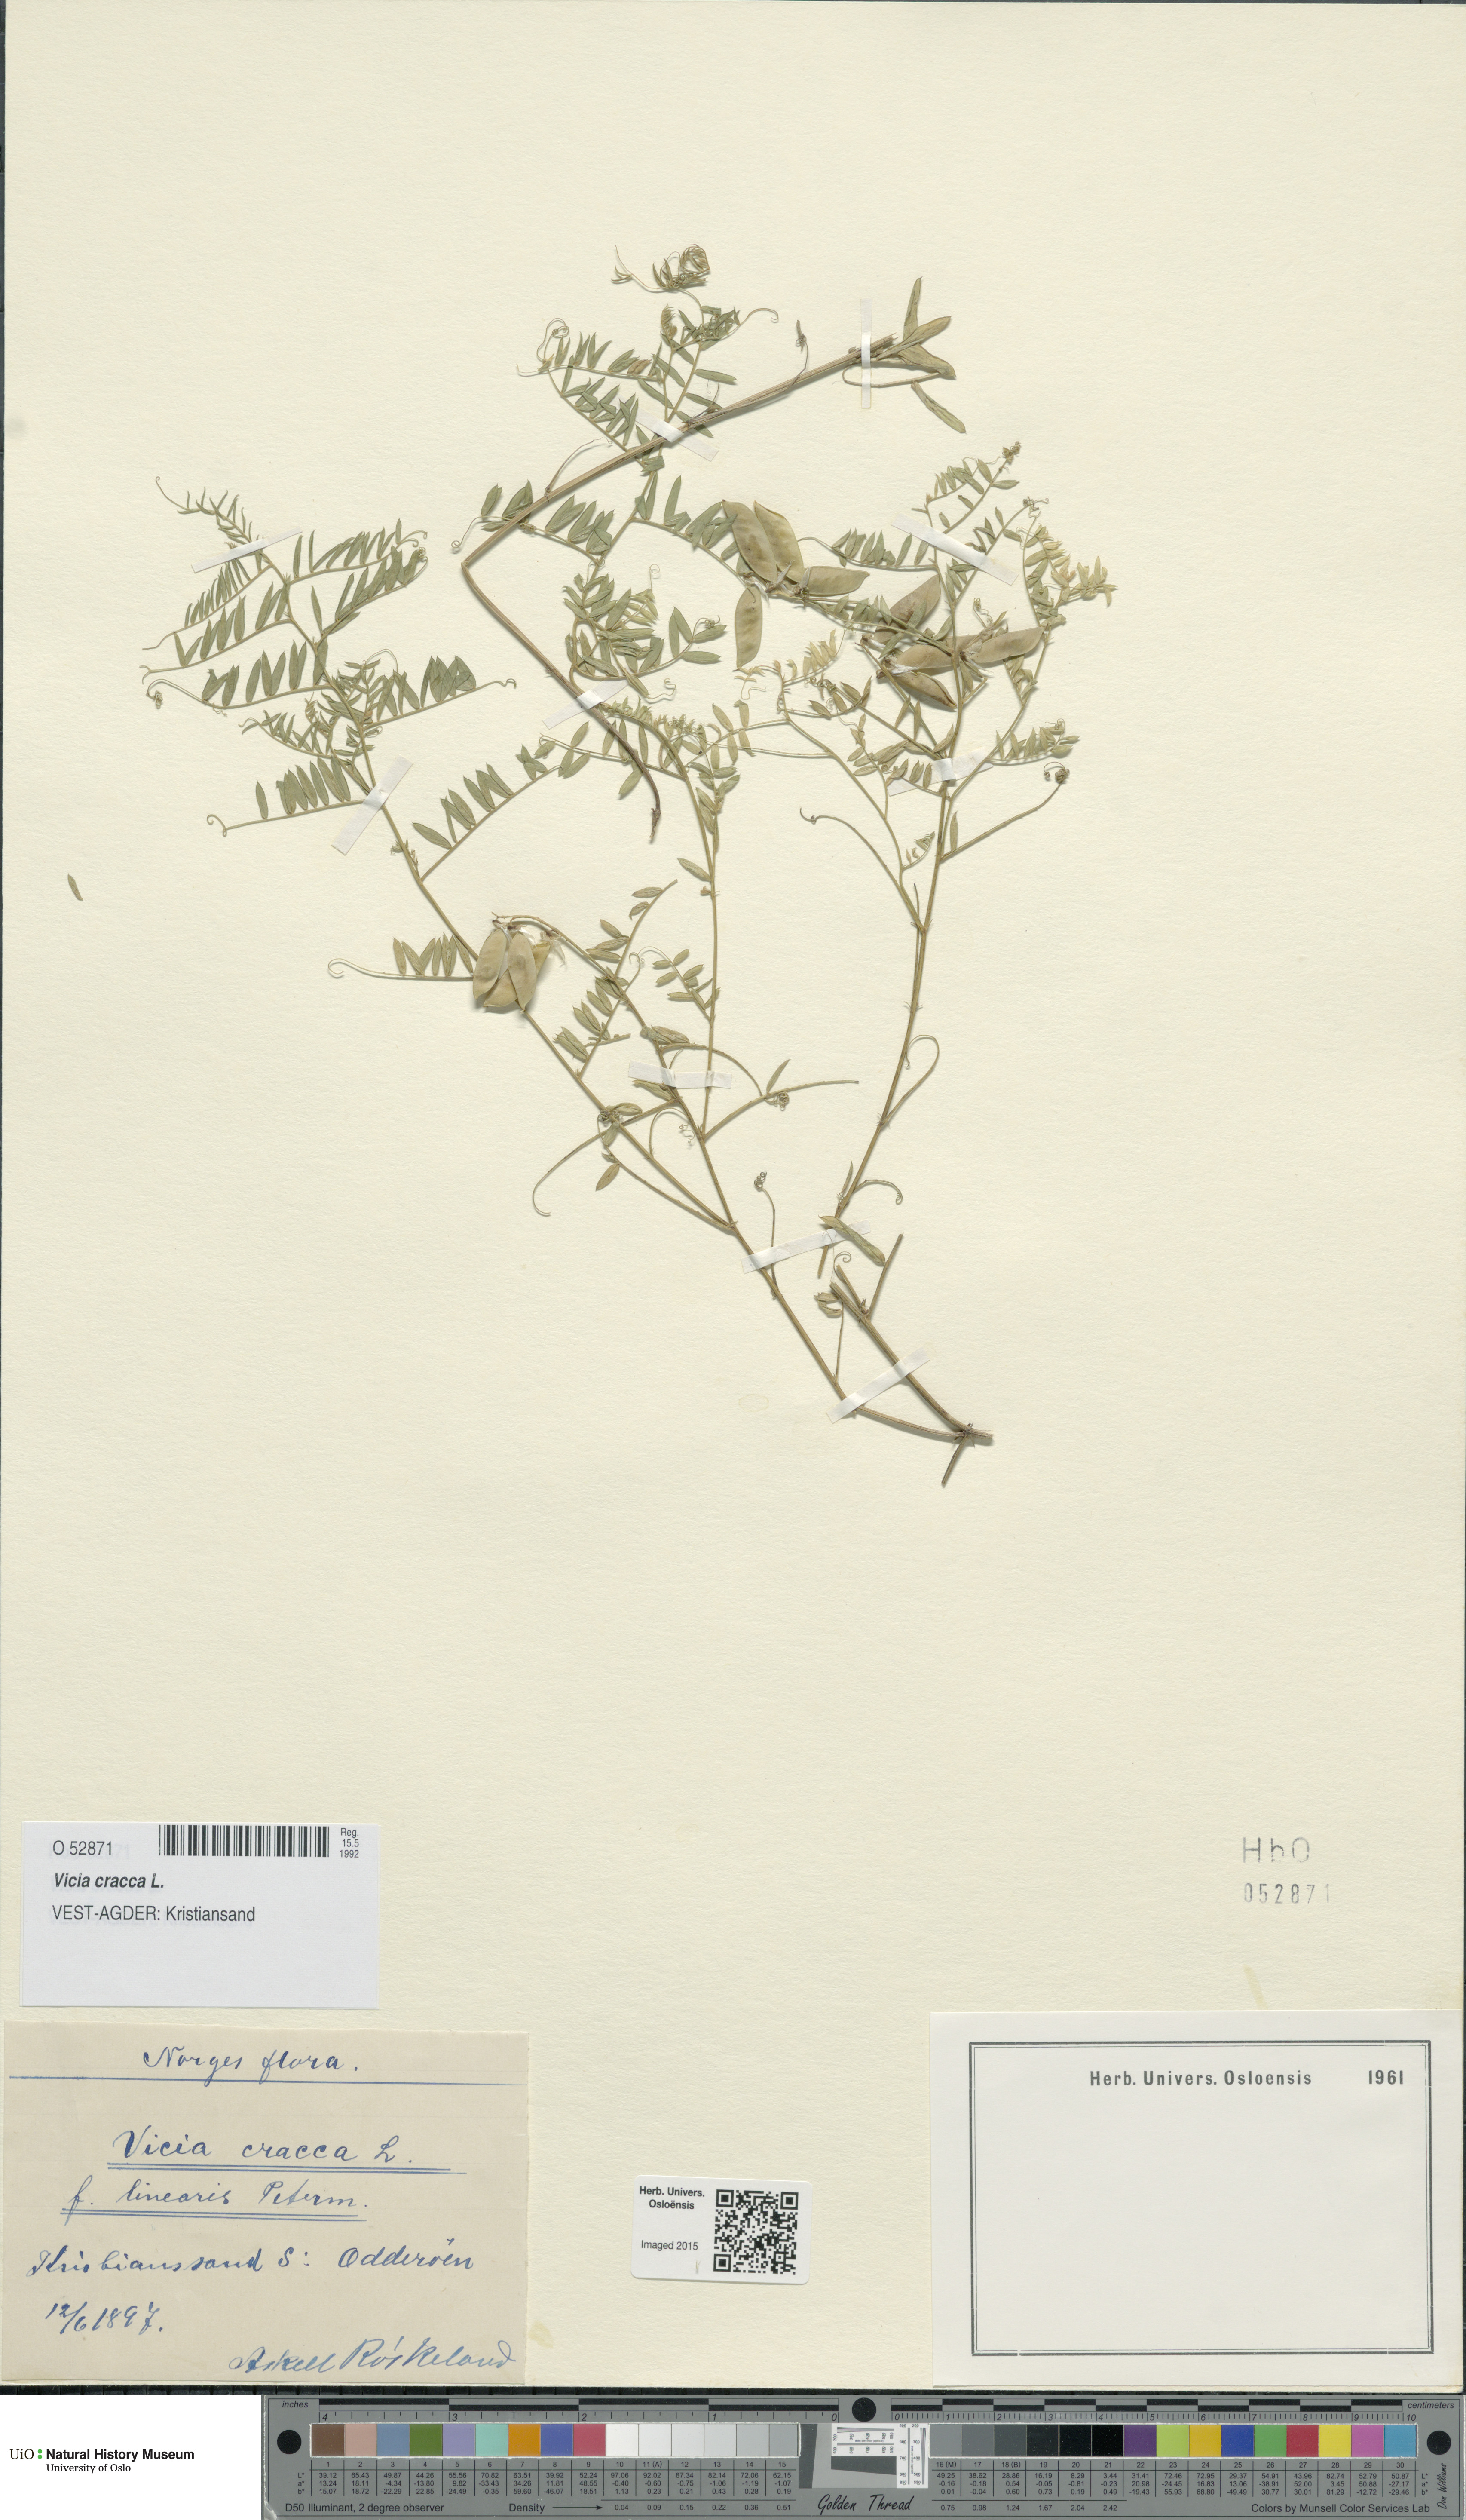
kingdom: Plantae
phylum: Tracheophyta
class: Magnoliopsida
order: Fabales
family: Fabaceae
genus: Vicia
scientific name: Vicia cracca
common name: Bird vetch
